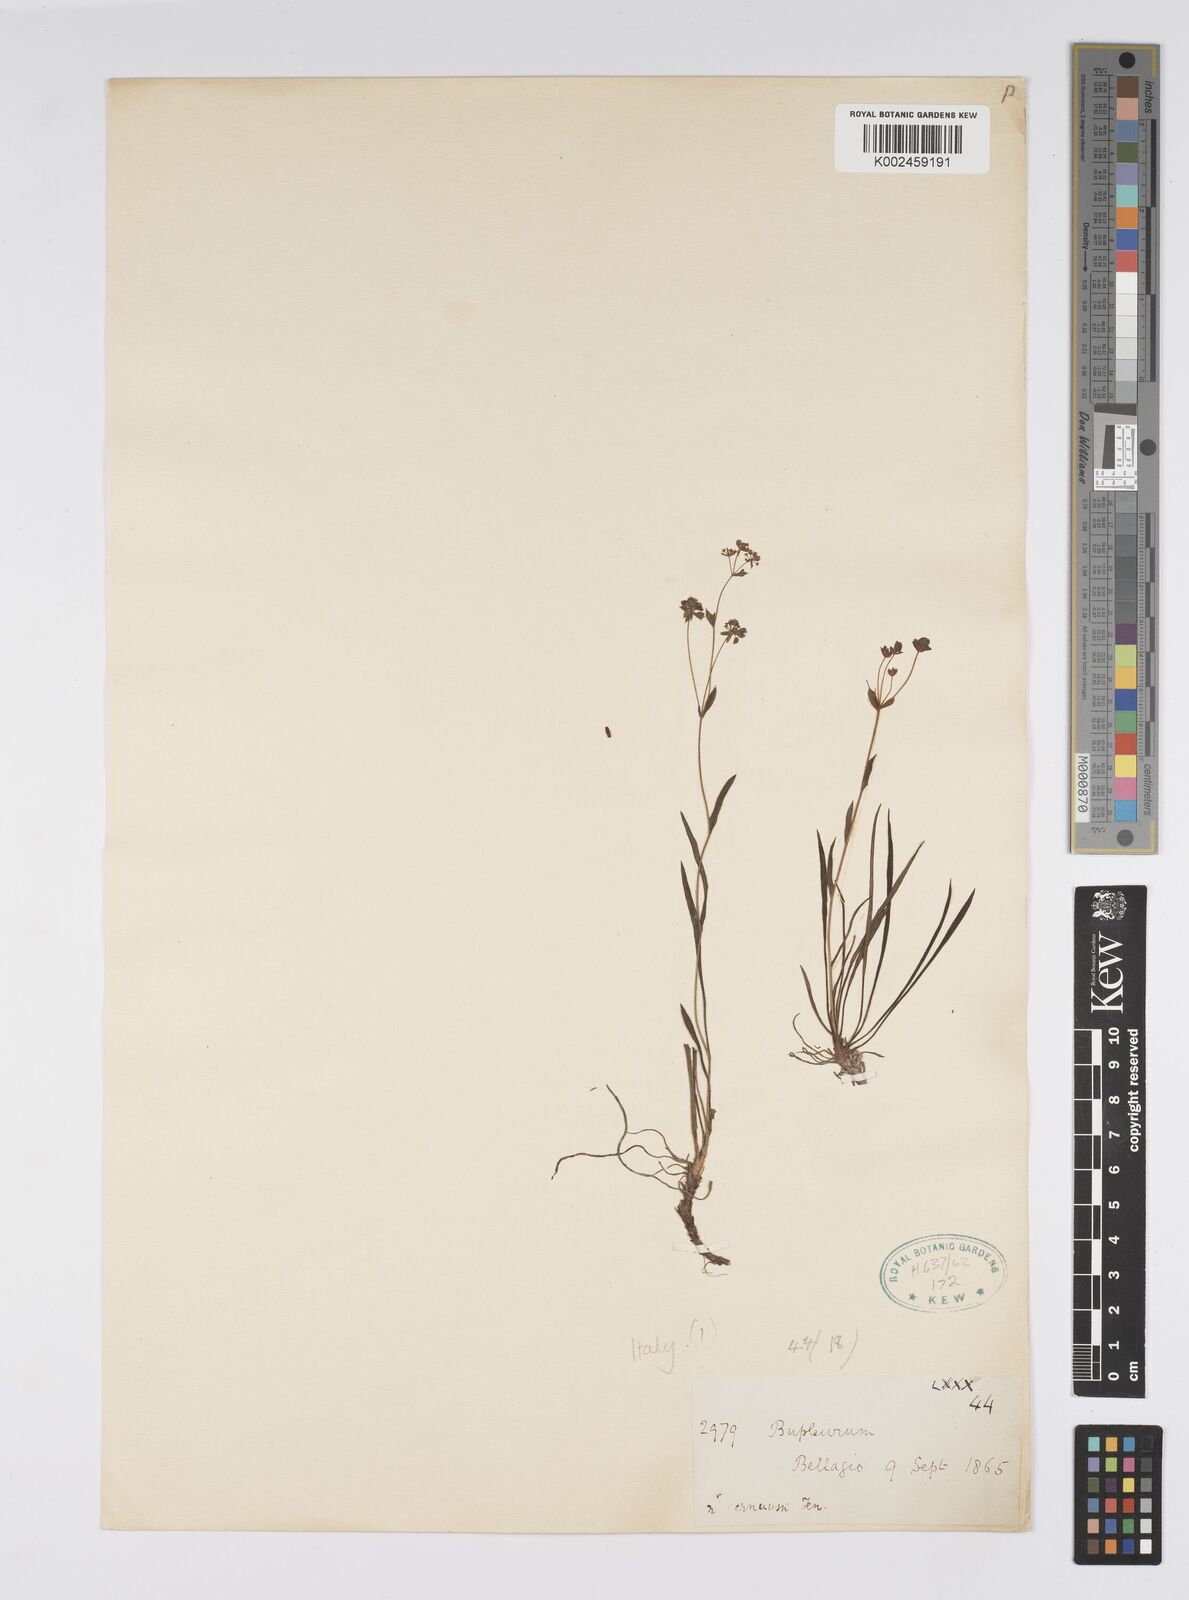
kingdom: Plantae
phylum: Tracheophyta
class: Magnoliopsida
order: Apiales
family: Apiaceae
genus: Bupleurum
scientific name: Bupleurum
